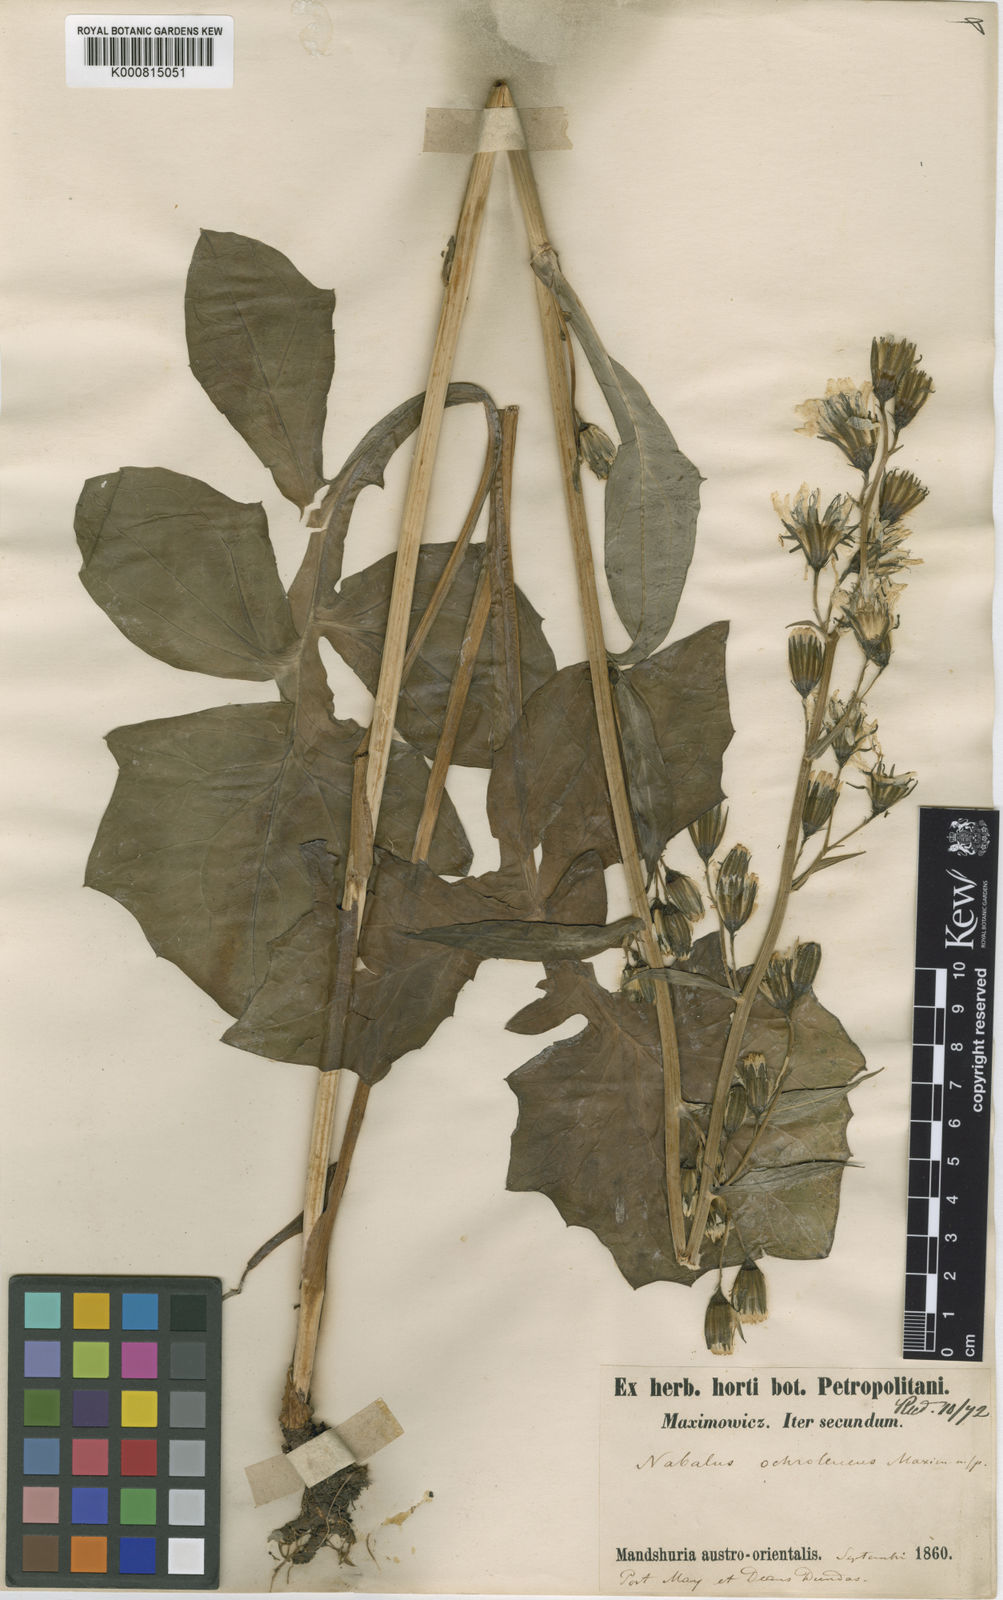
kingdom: Plantae
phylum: Tracheophyta
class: Magnoliopsida
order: Asterales
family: Asteraceae
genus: Nabalus
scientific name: Nabalus ochroleucus
